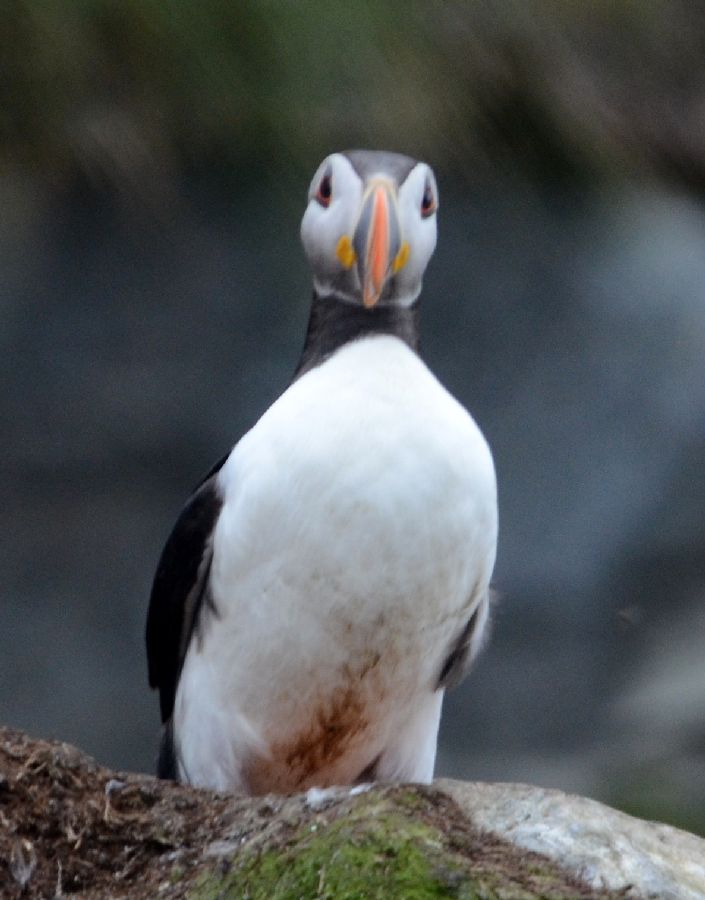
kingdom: Animalia
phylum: Chordata
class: Aves
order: Charadriiformes
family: Alcidae
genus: Fratercula
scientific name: Fratercula arctica
